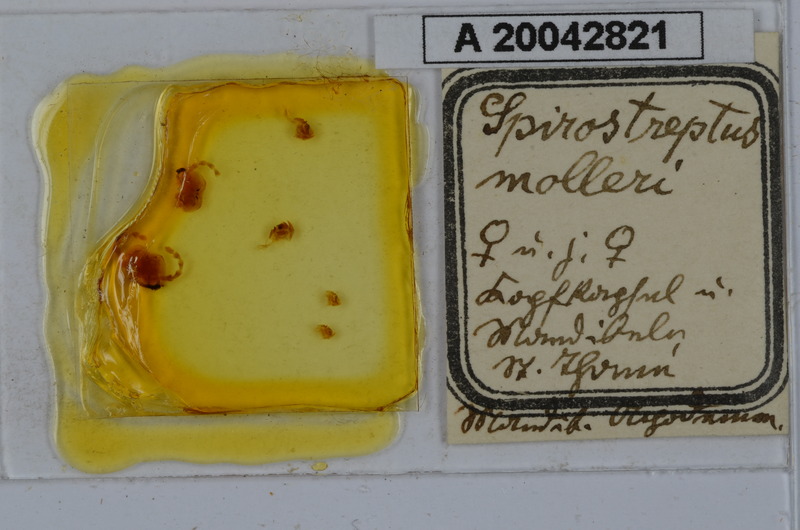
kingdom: Animalia
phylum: Arthropoda
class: Diplopoda
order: Spirostreptida
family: Spirostreptidae
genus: Globanus
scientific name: Globanus integer
